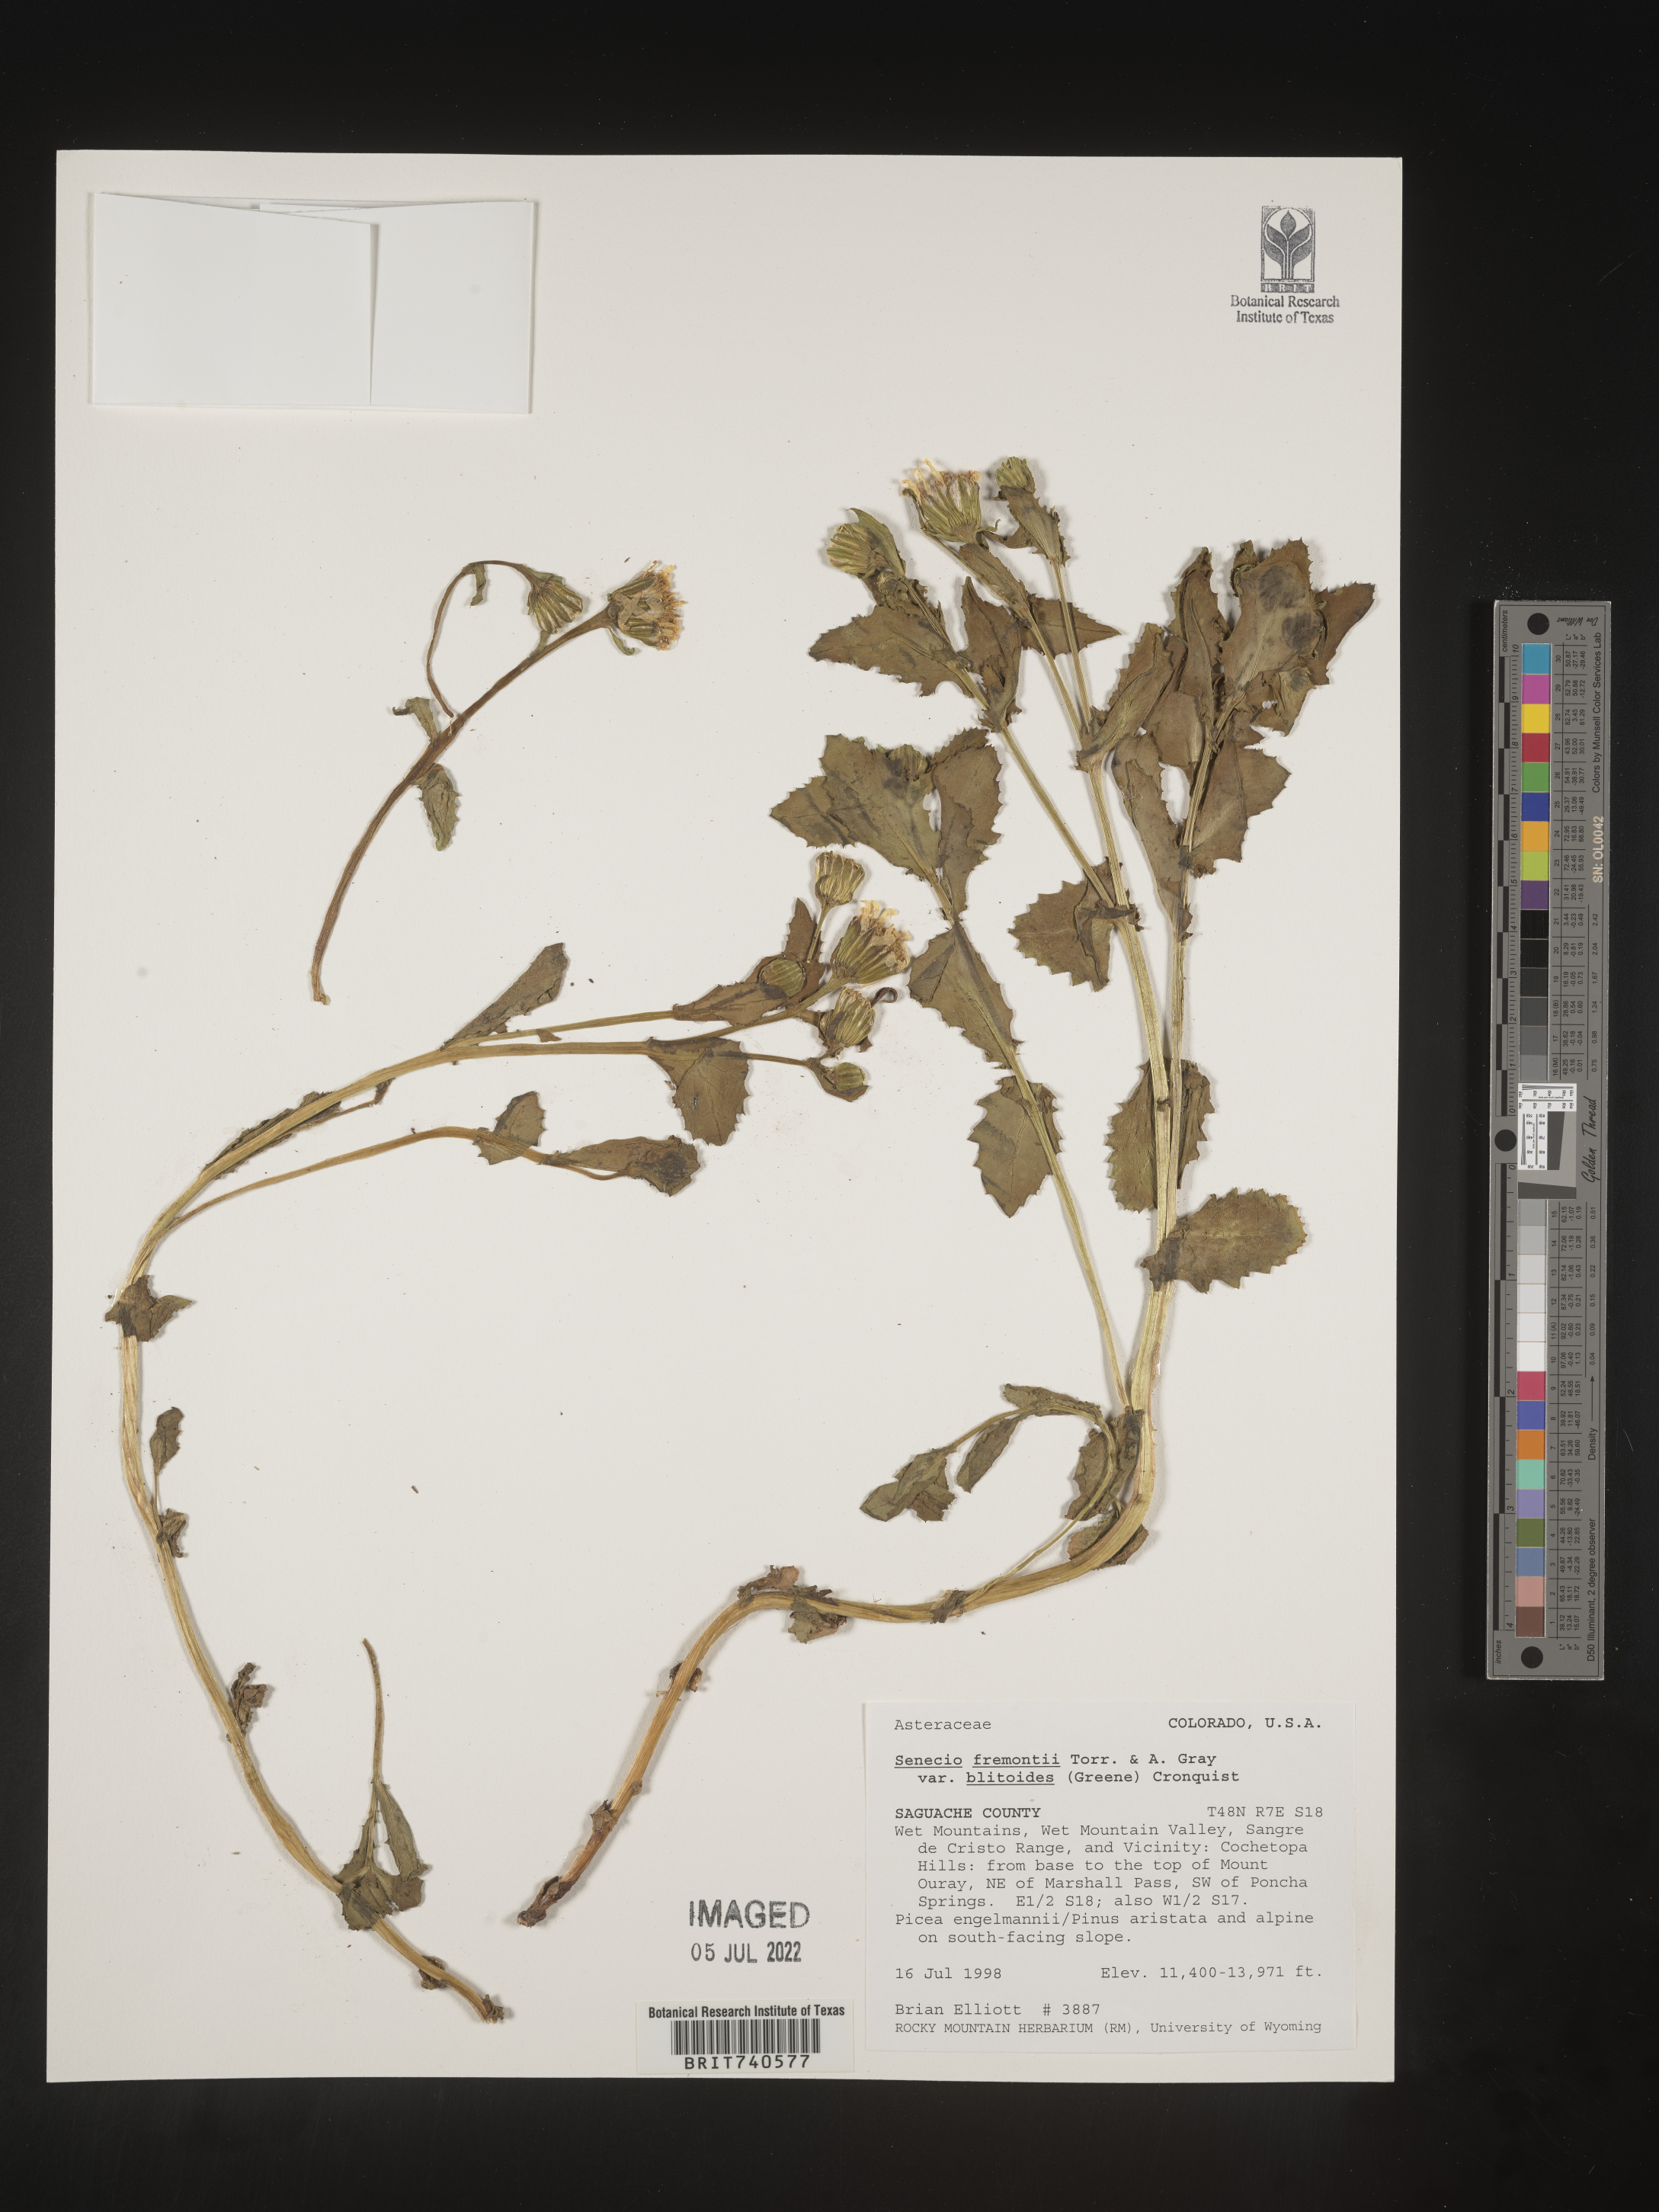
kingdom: Plantae
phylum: Tracheophyta
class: Magnoliopsida
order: Asterales
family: Asteraceae
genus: Senecio
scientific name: Senecio blitoides
